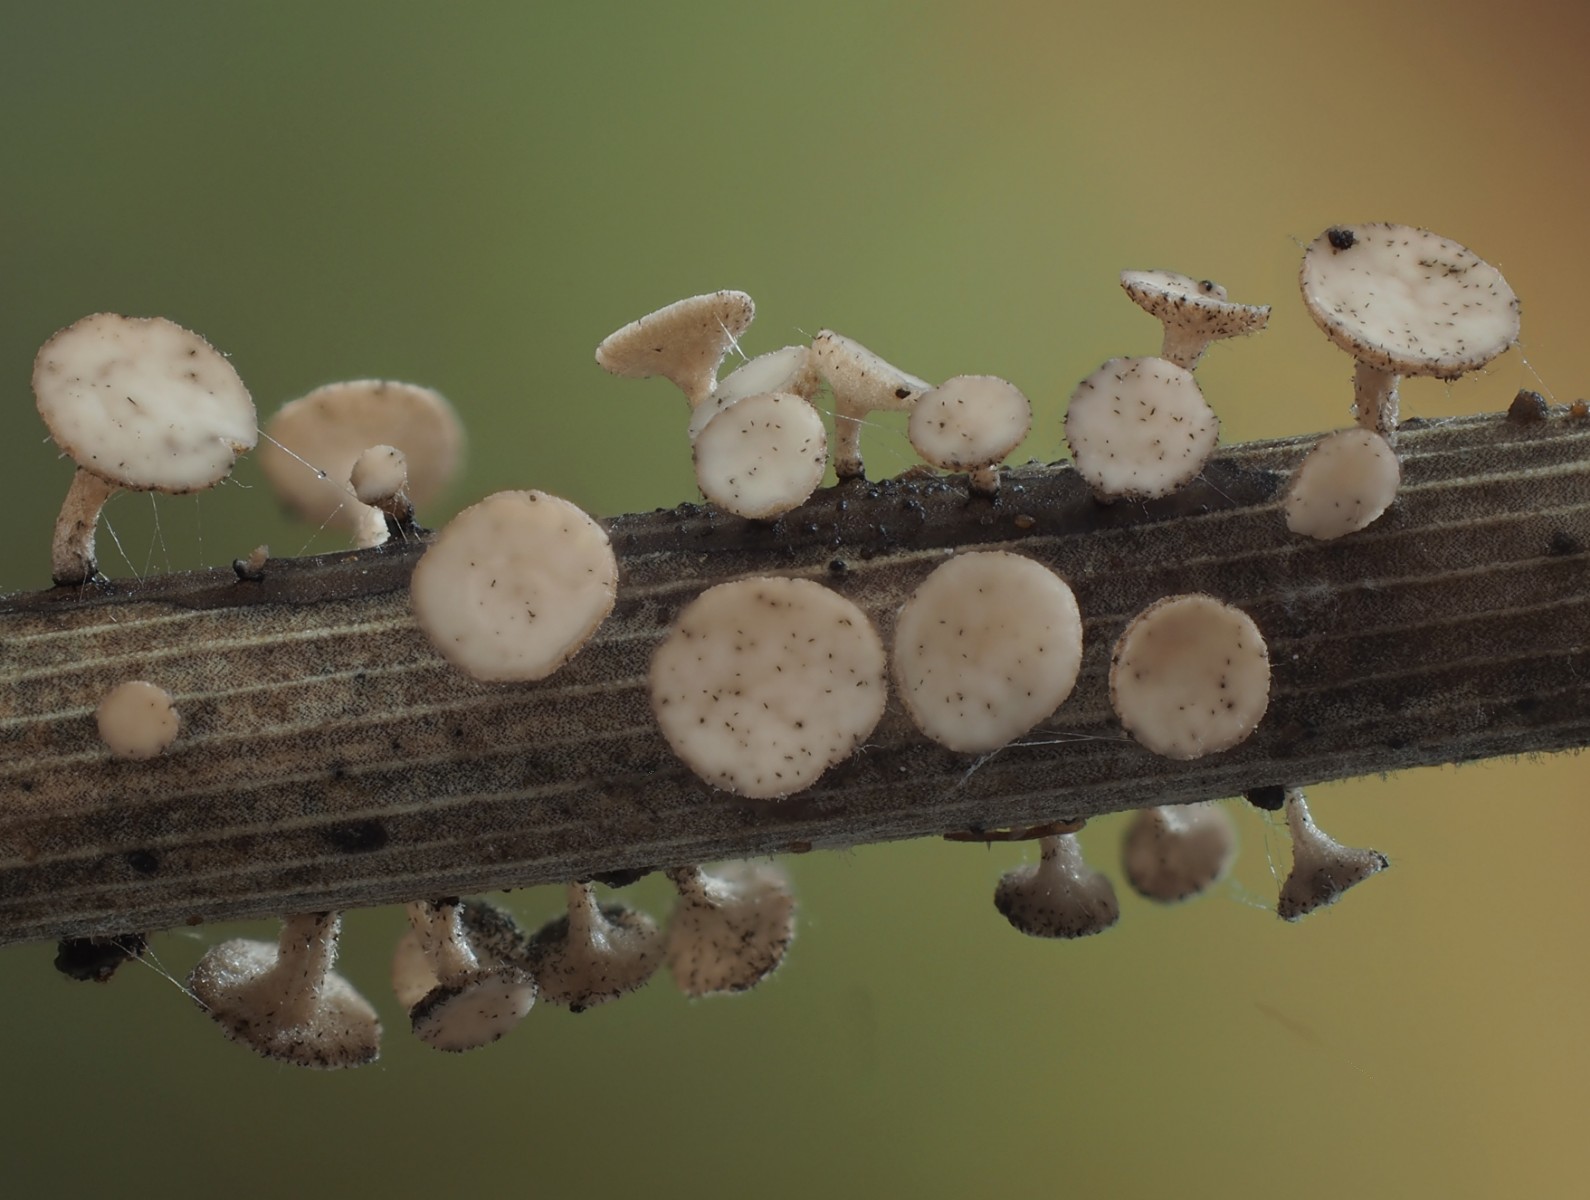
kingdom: Fungi
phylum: Ascomycota
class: Leotiomycetes
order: Helotiales
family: Rutstroemiaceae
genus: Rutstroemia
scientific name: Rutstroemia lindaviana
